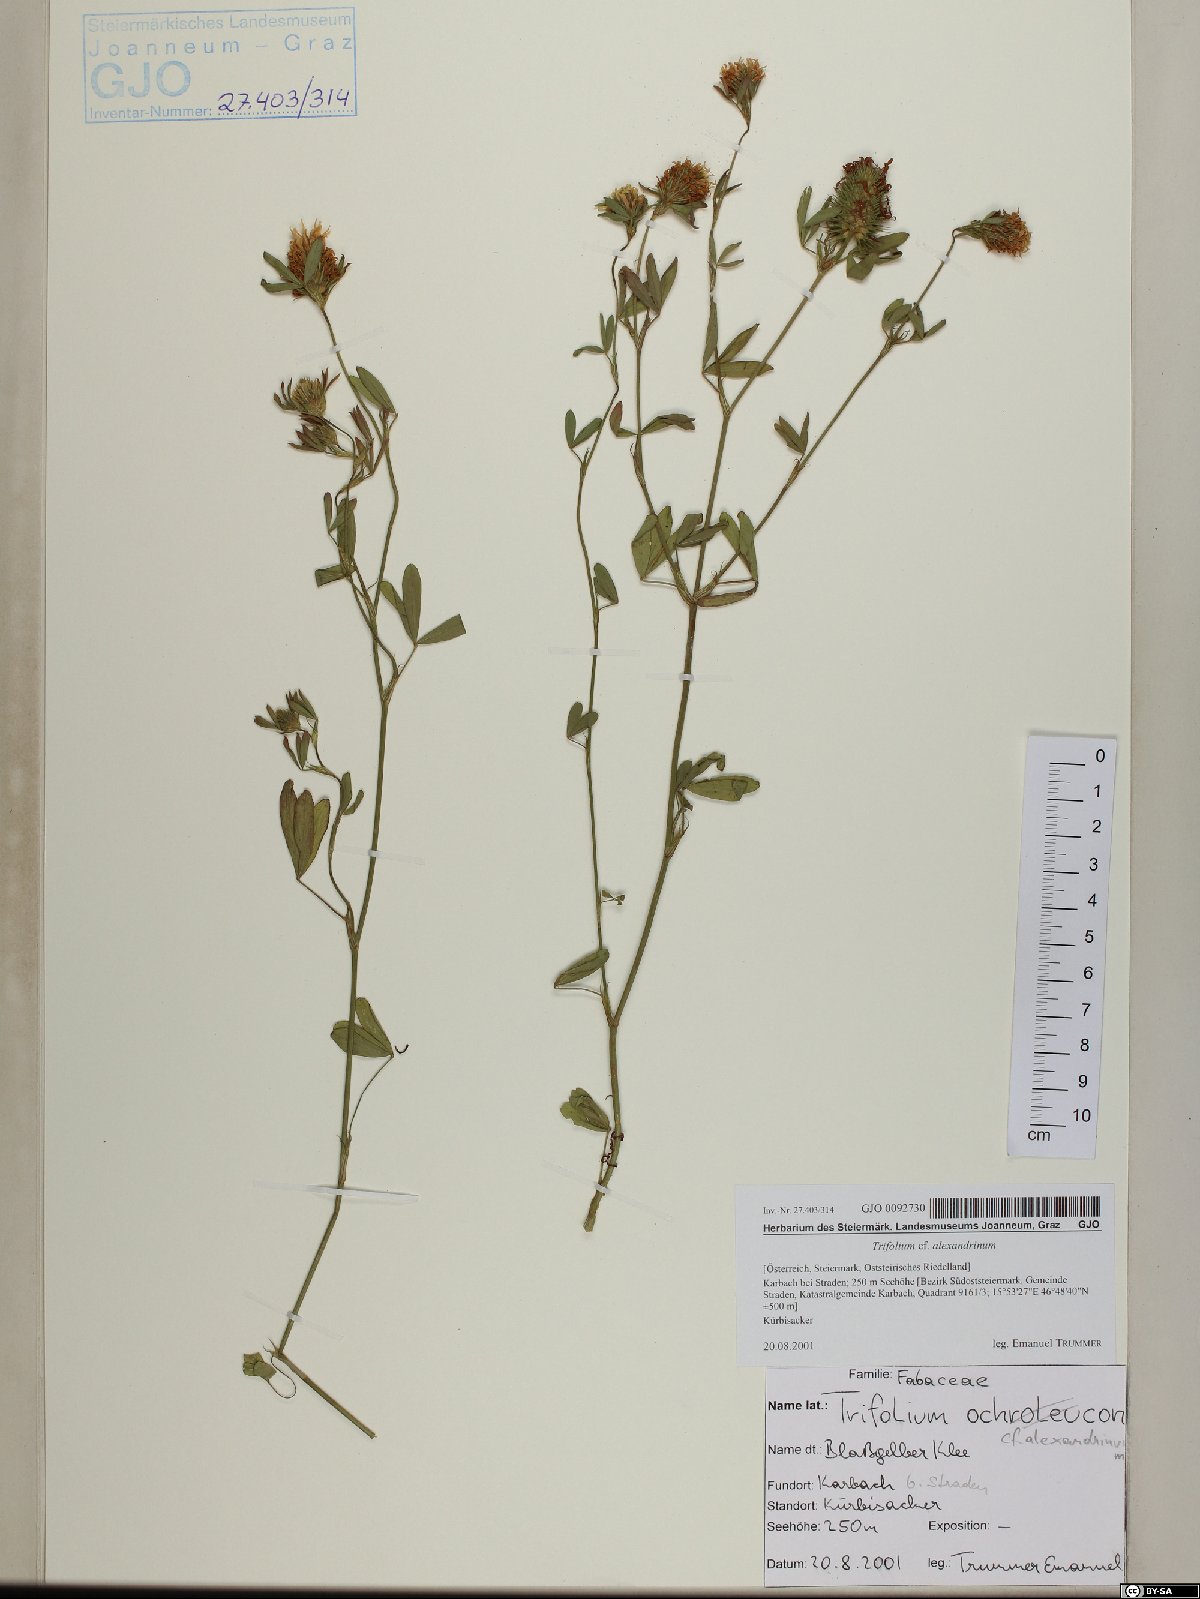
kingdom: Plantae
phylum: Tracheophyta
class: Magnoliopsida
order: Fabales
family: Fabaceae
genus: Trifolium
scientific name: Trifolium alexandrinum
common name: Egyptian clover
